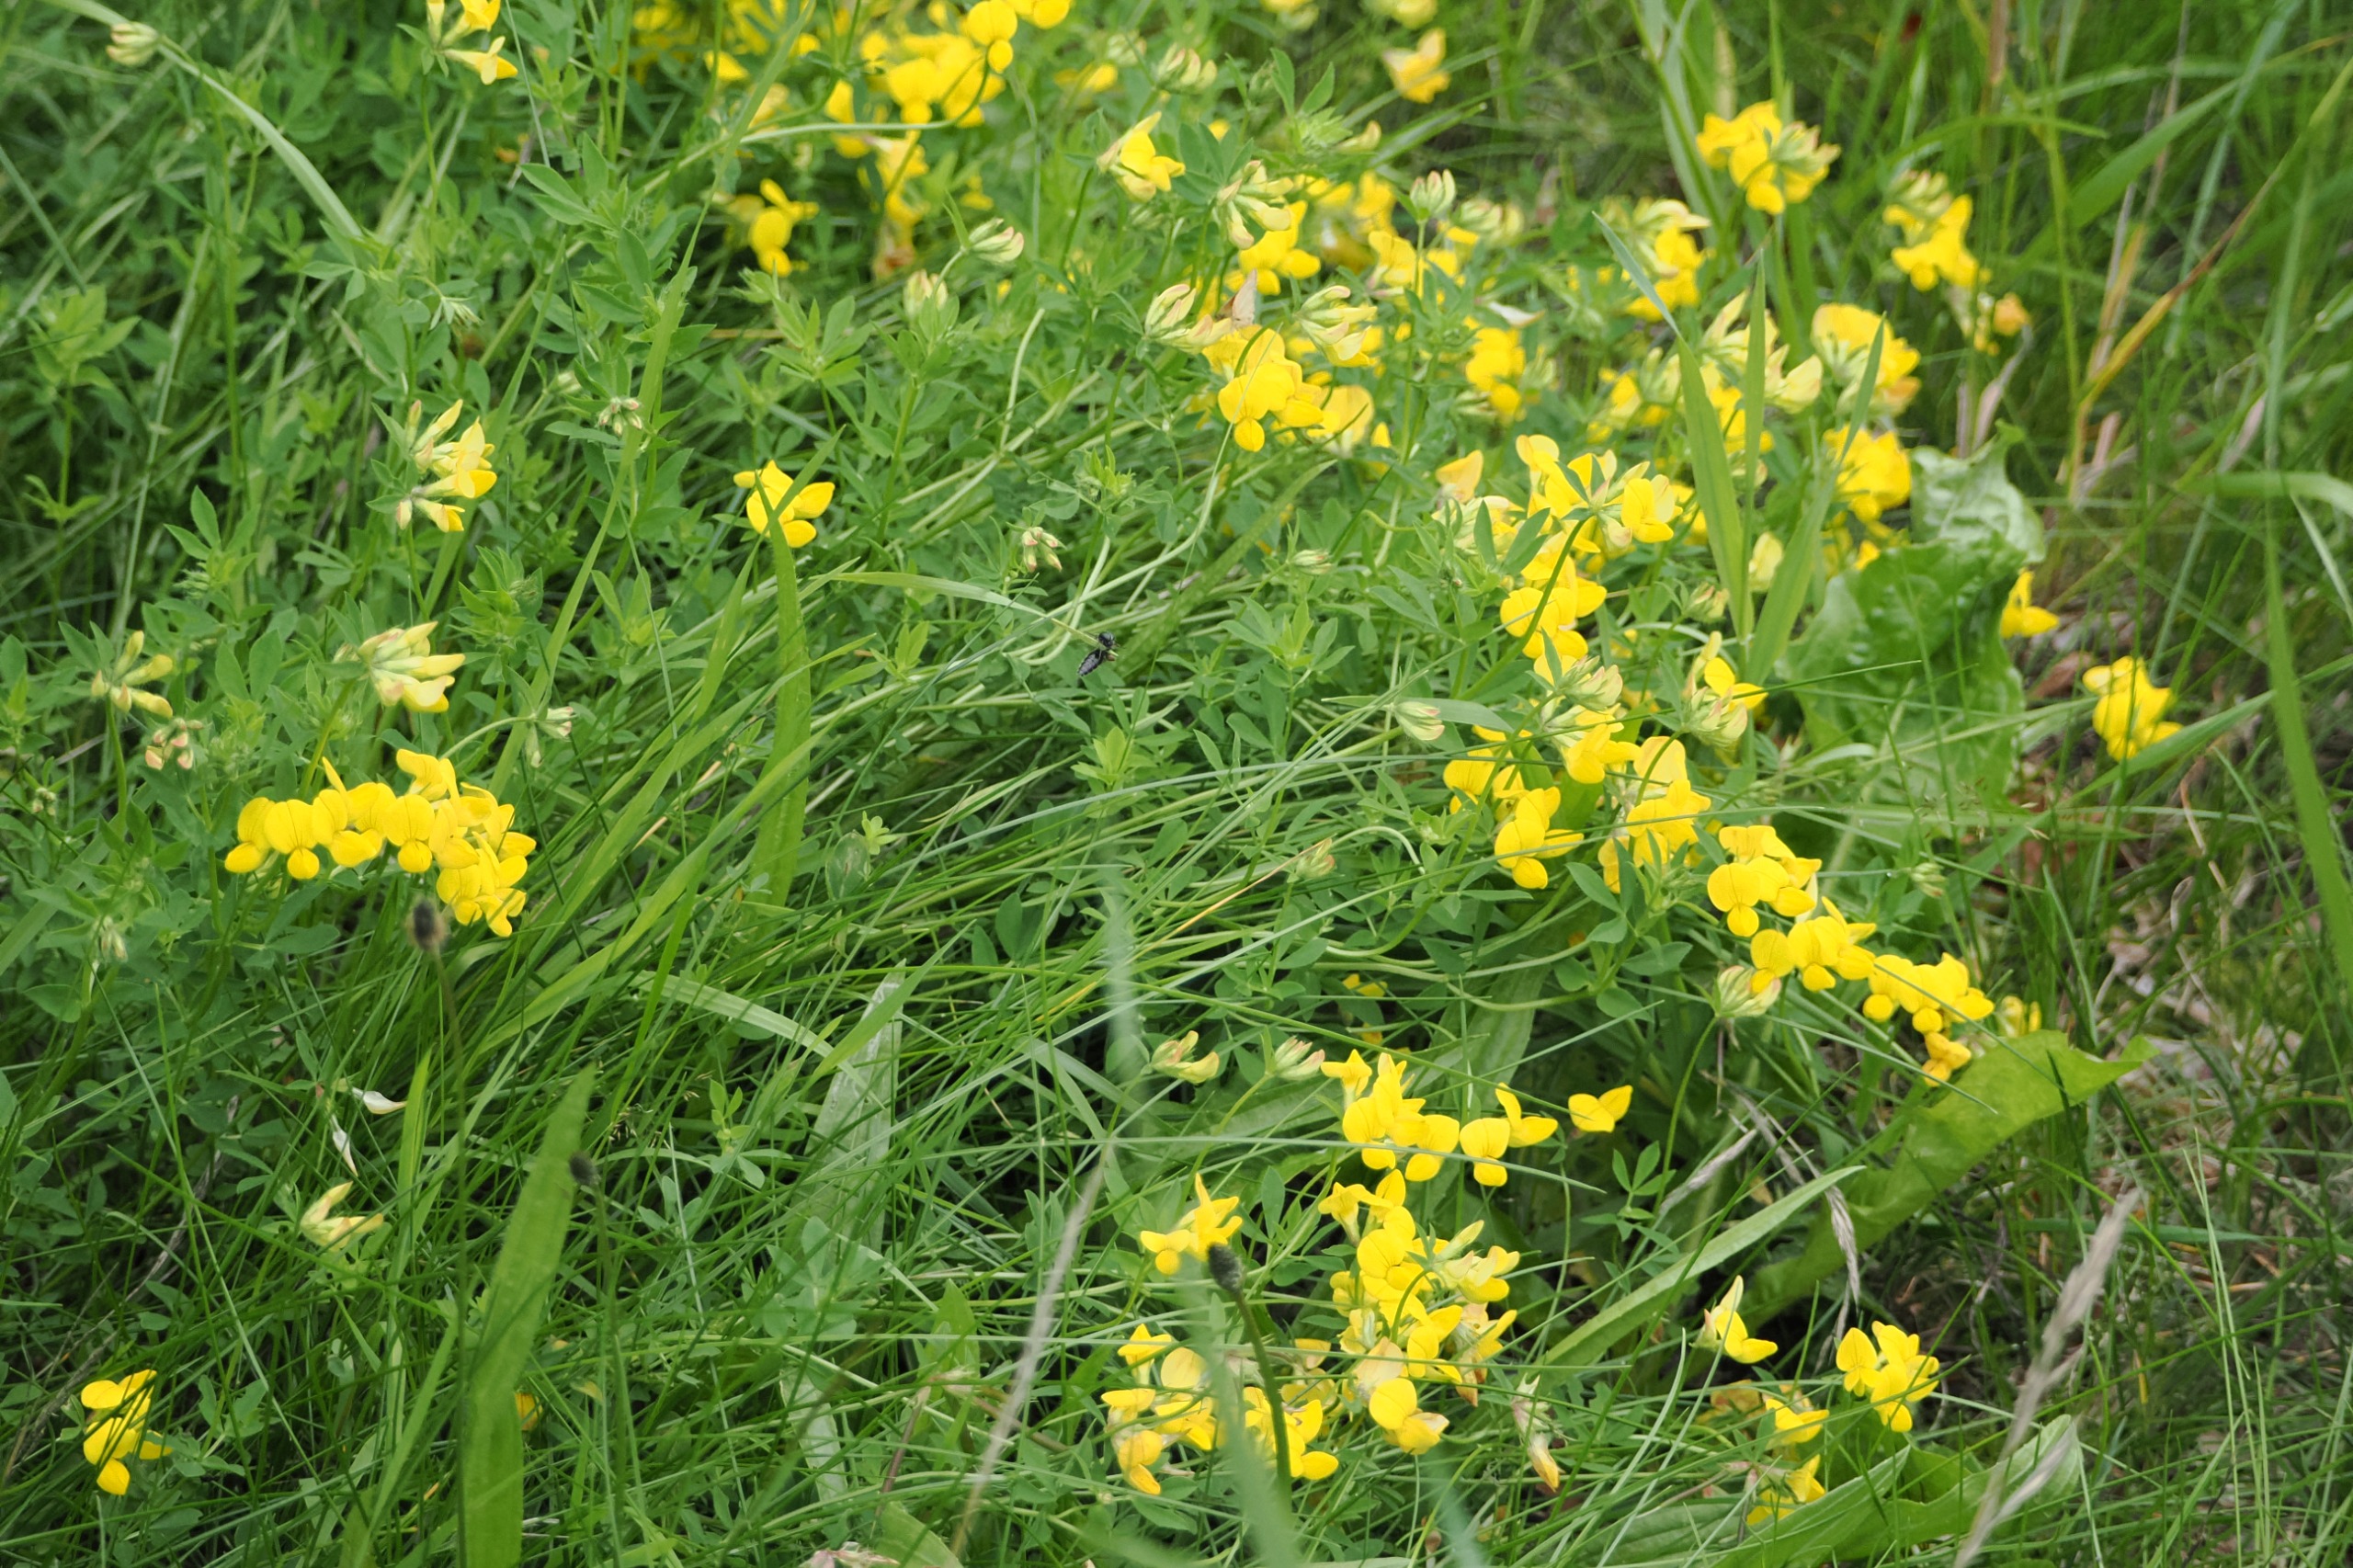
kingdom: Plantae
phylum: Tracheophyta
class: Magnoliopsida
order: Fabales
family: Fabaceae
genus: Lotus
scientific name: Lotus corniculatus
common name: Almindelig kællingetand
